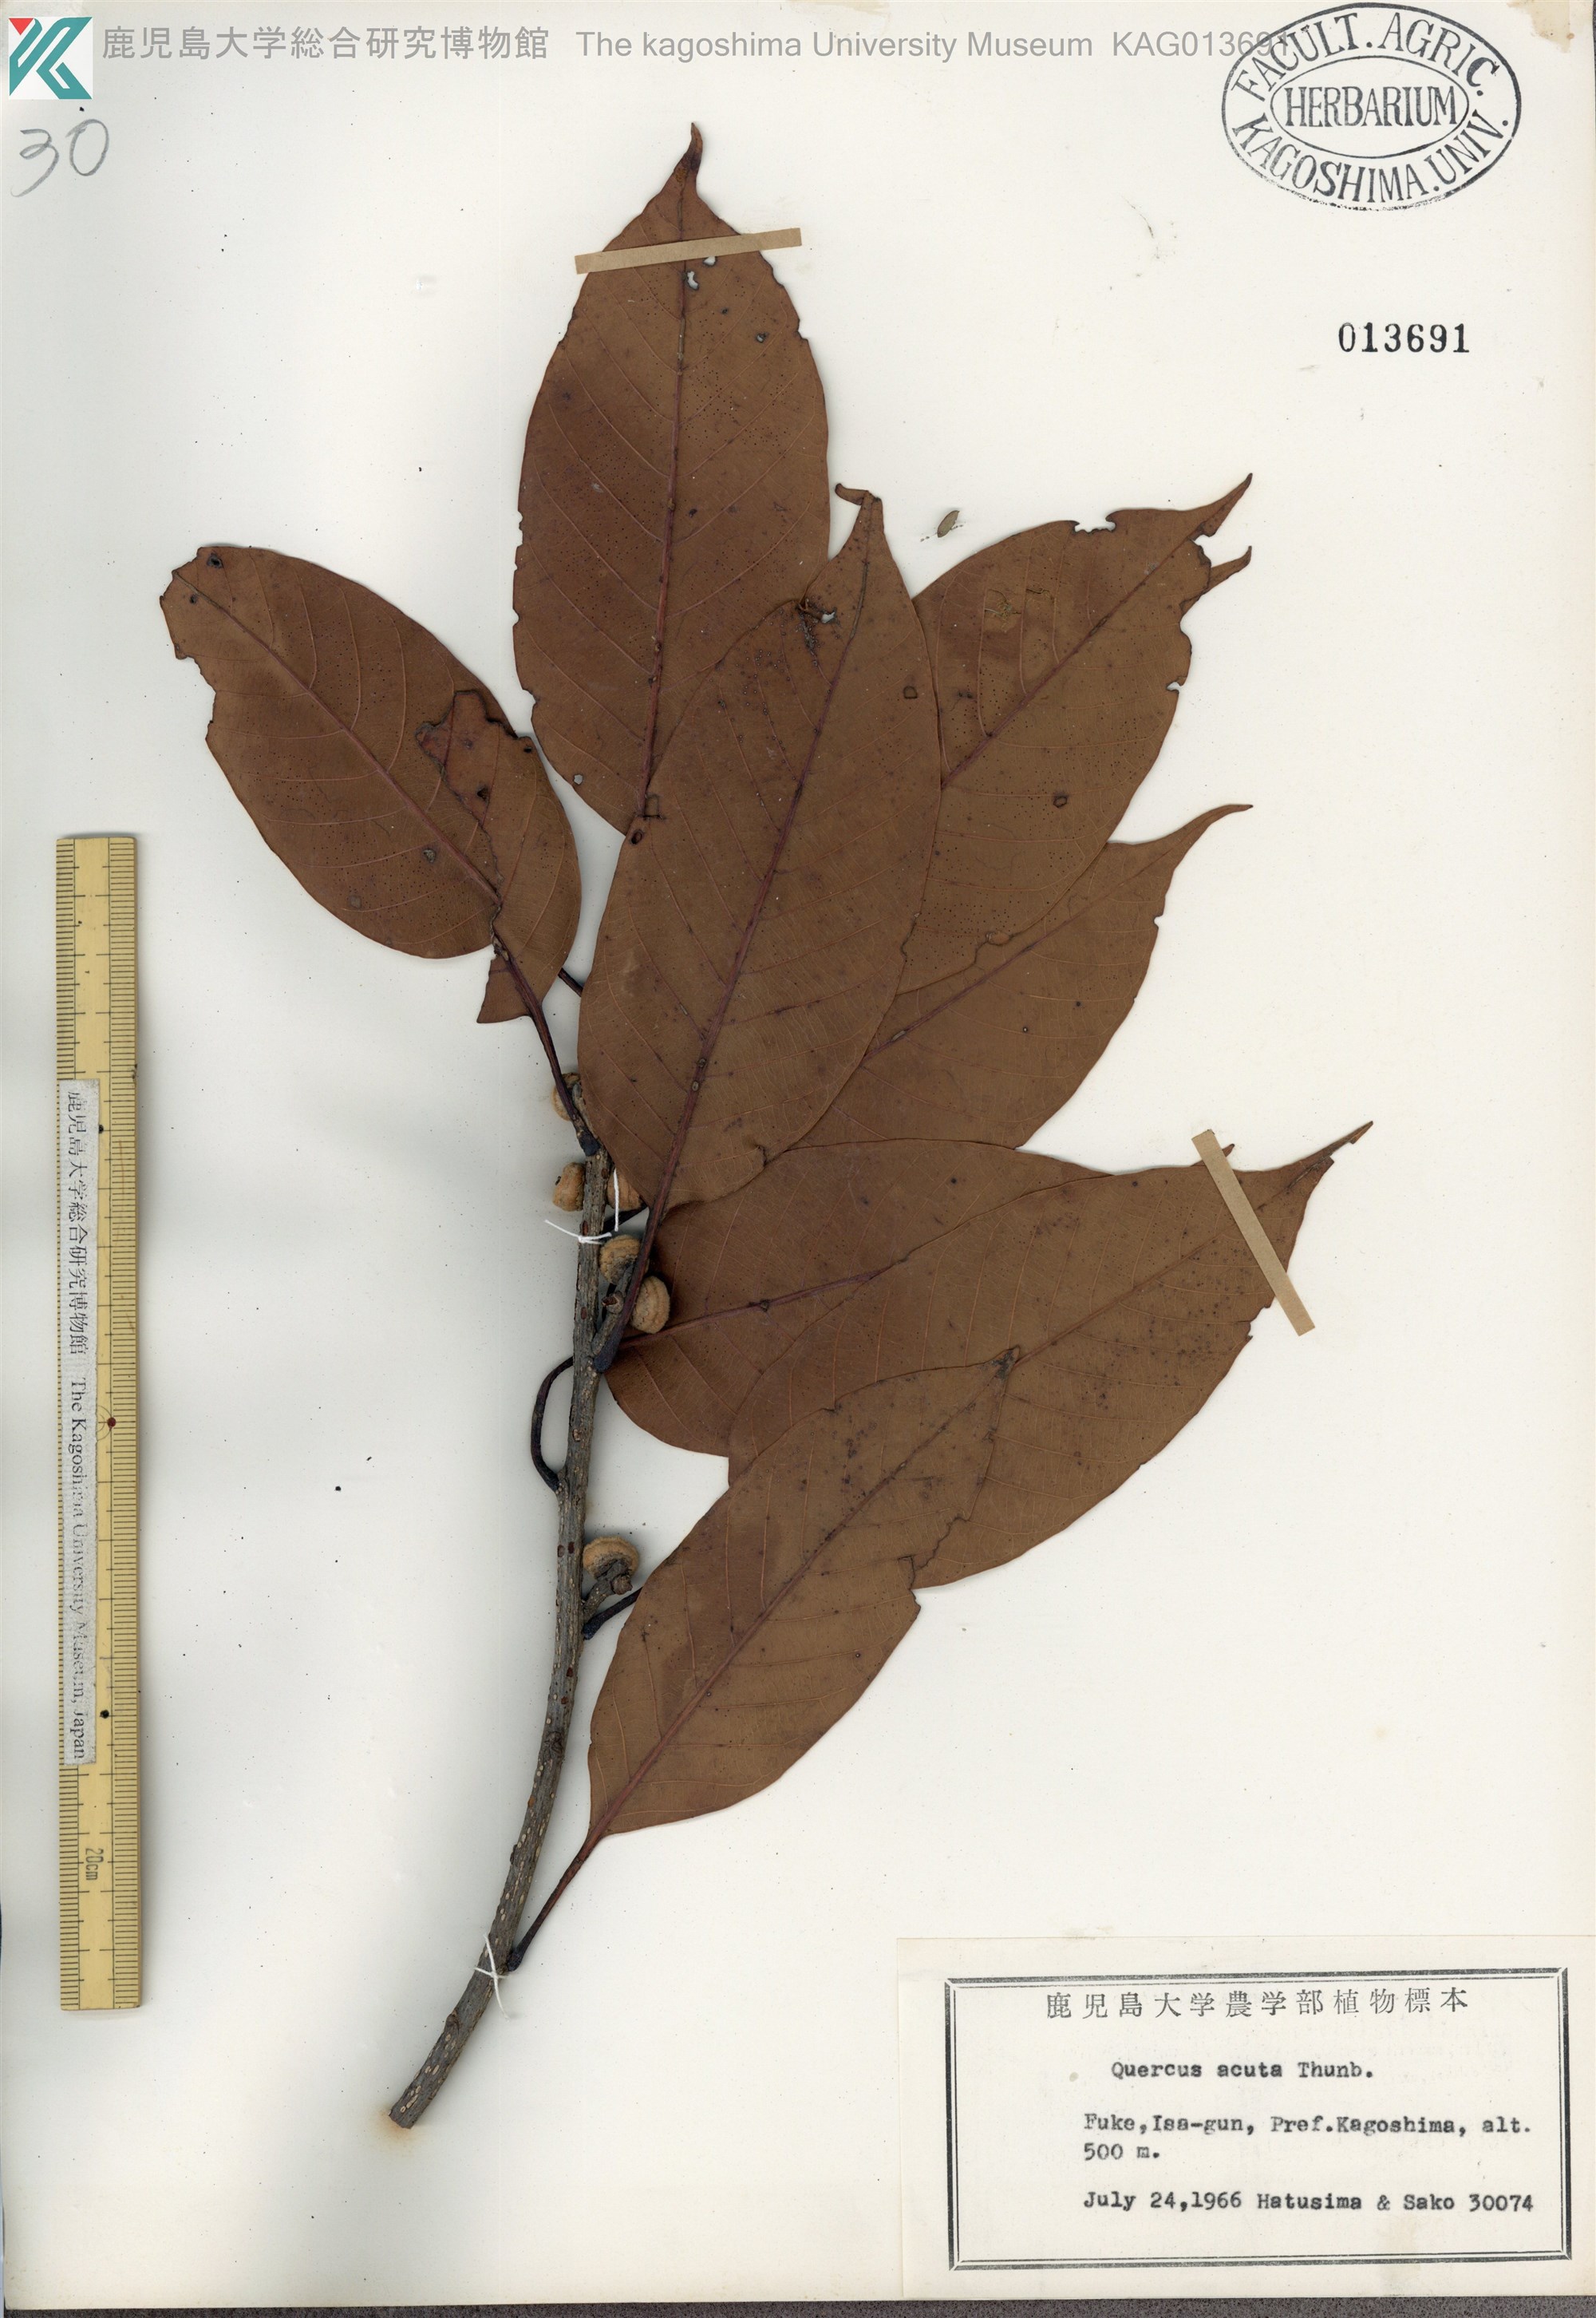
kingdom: Plantae
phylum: Tracheophyta
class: Magnoliopsida
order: Fagales
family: Fagaceae
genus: Quercus
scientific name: Quercus acuta
